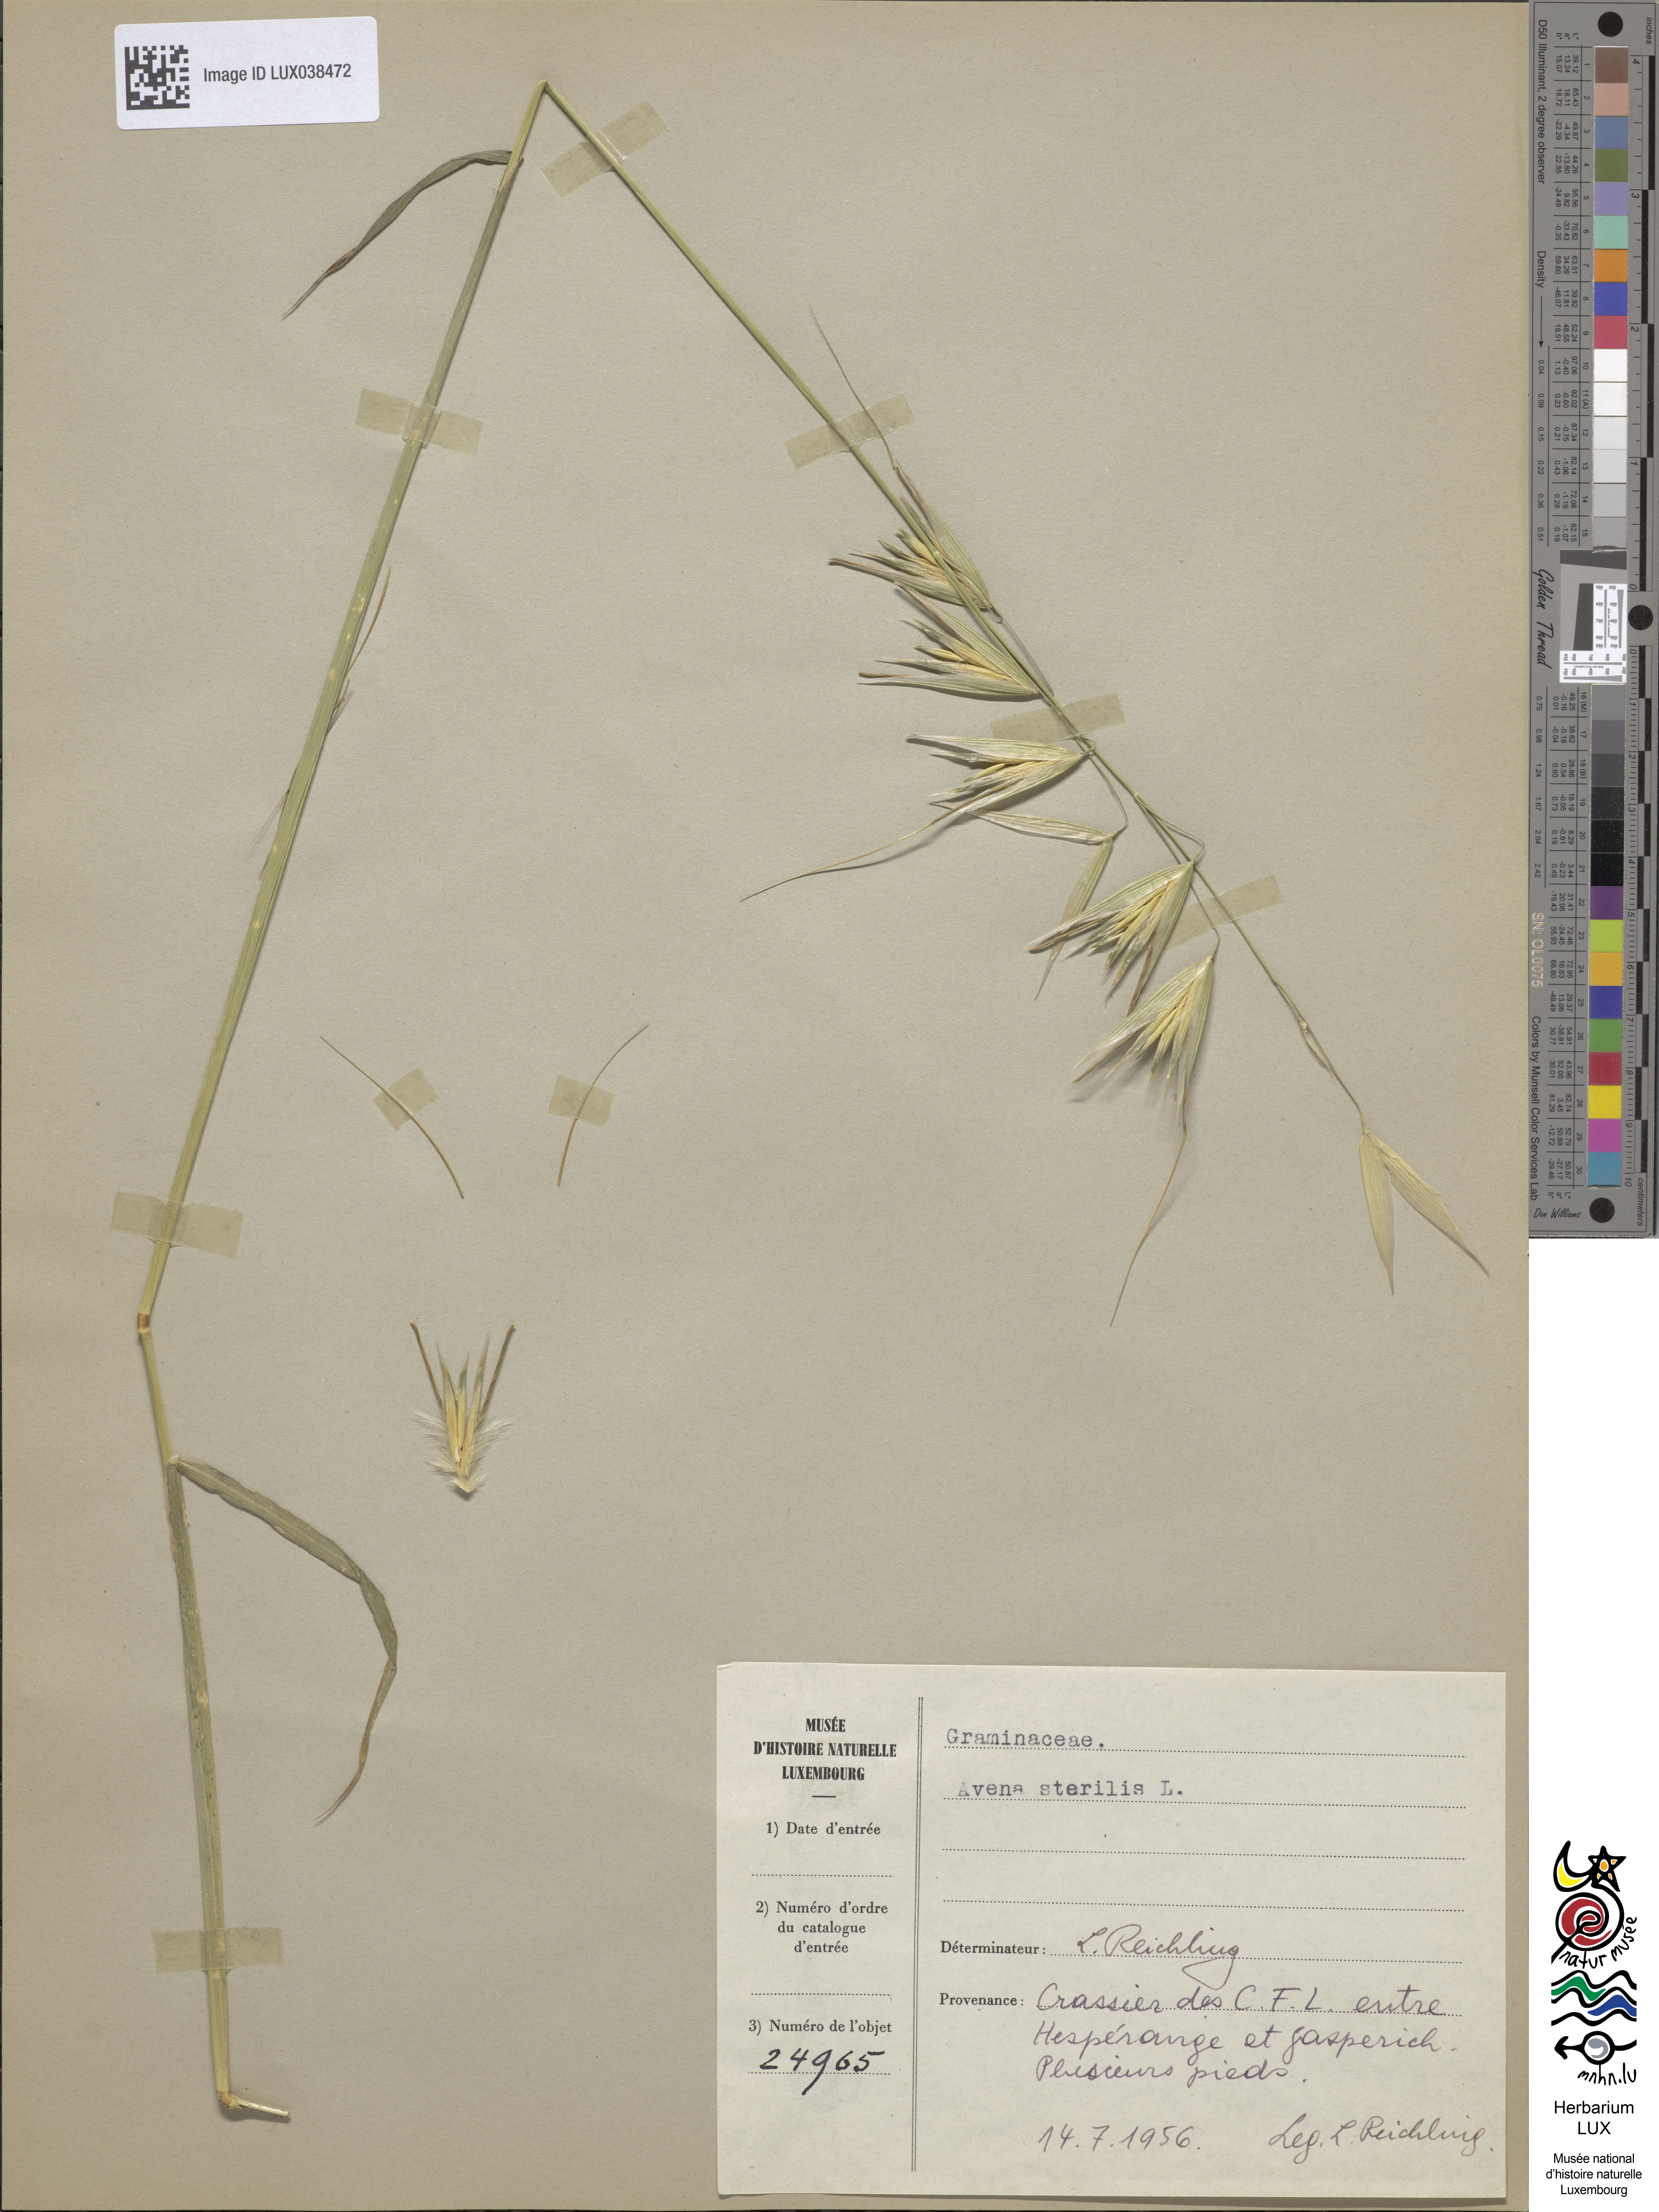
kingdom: Plantae
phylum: Tracheophyta
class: Liliopsida
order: Poales
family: Poaceae
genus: Avena
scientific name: Avena sterilis
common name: Animated oat
